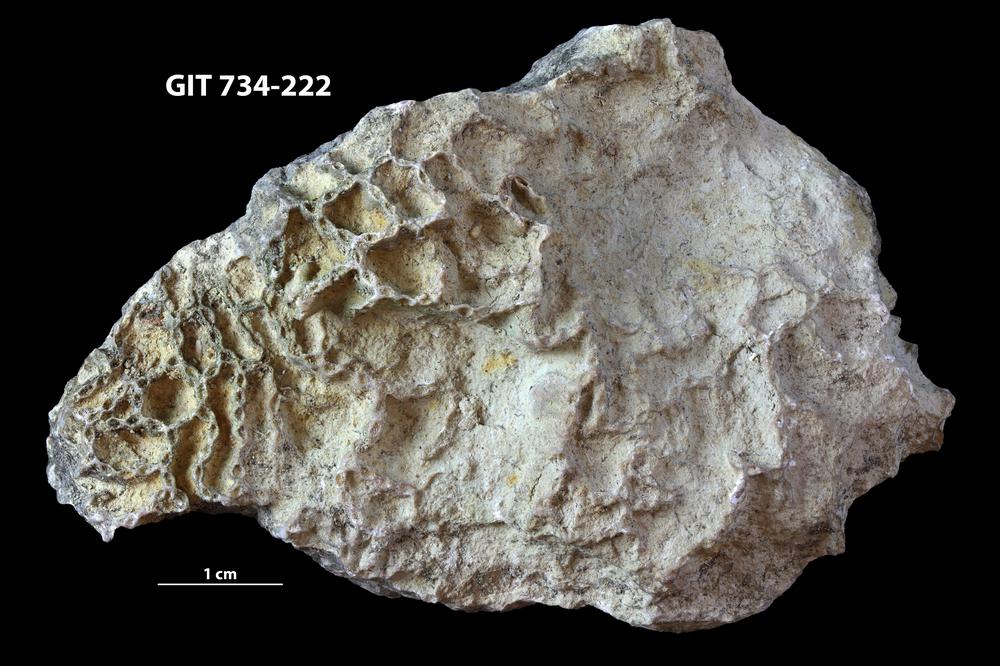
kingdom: Animalia
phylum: Cnidaria
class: Anthozoa
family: Cateniporidae
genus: Catenipora
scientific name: Catenipora
